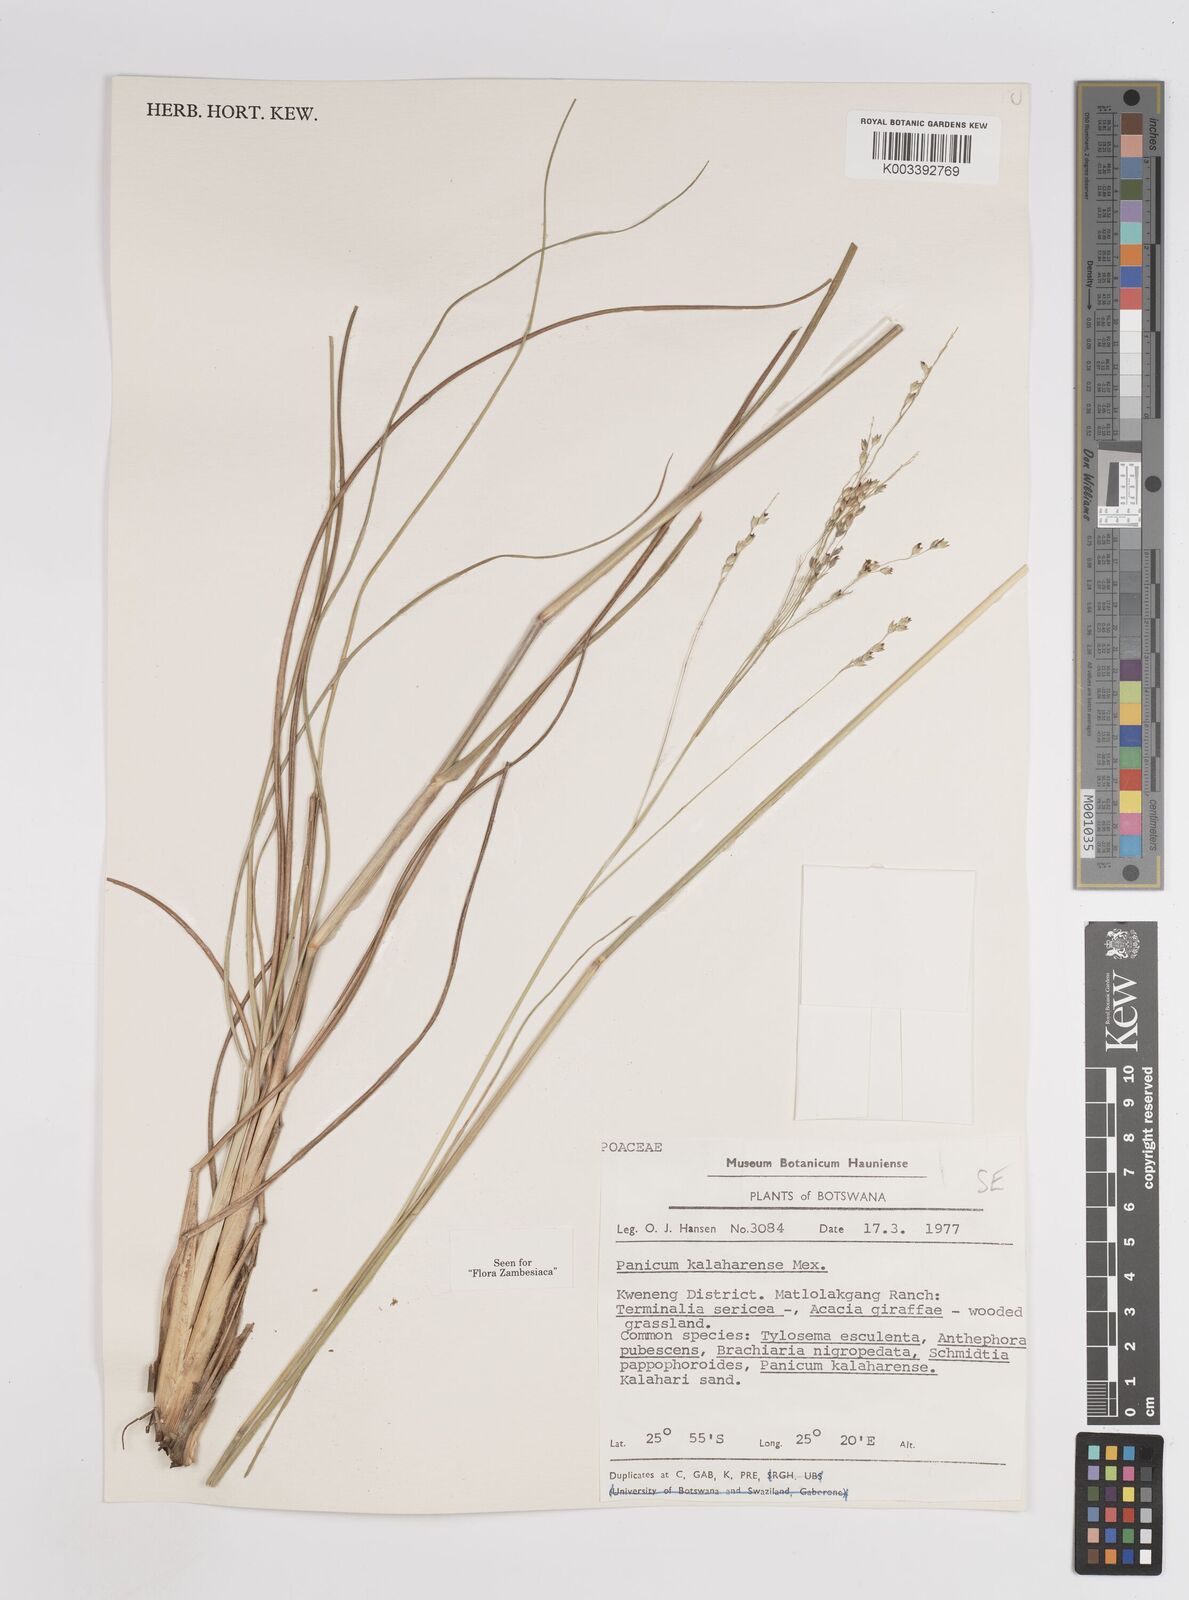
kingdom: Plantae
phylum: Tracheophyta
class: Liliopsida
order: Poales
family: Poaceae
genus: Panicum
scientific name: Panicum kalaharense
